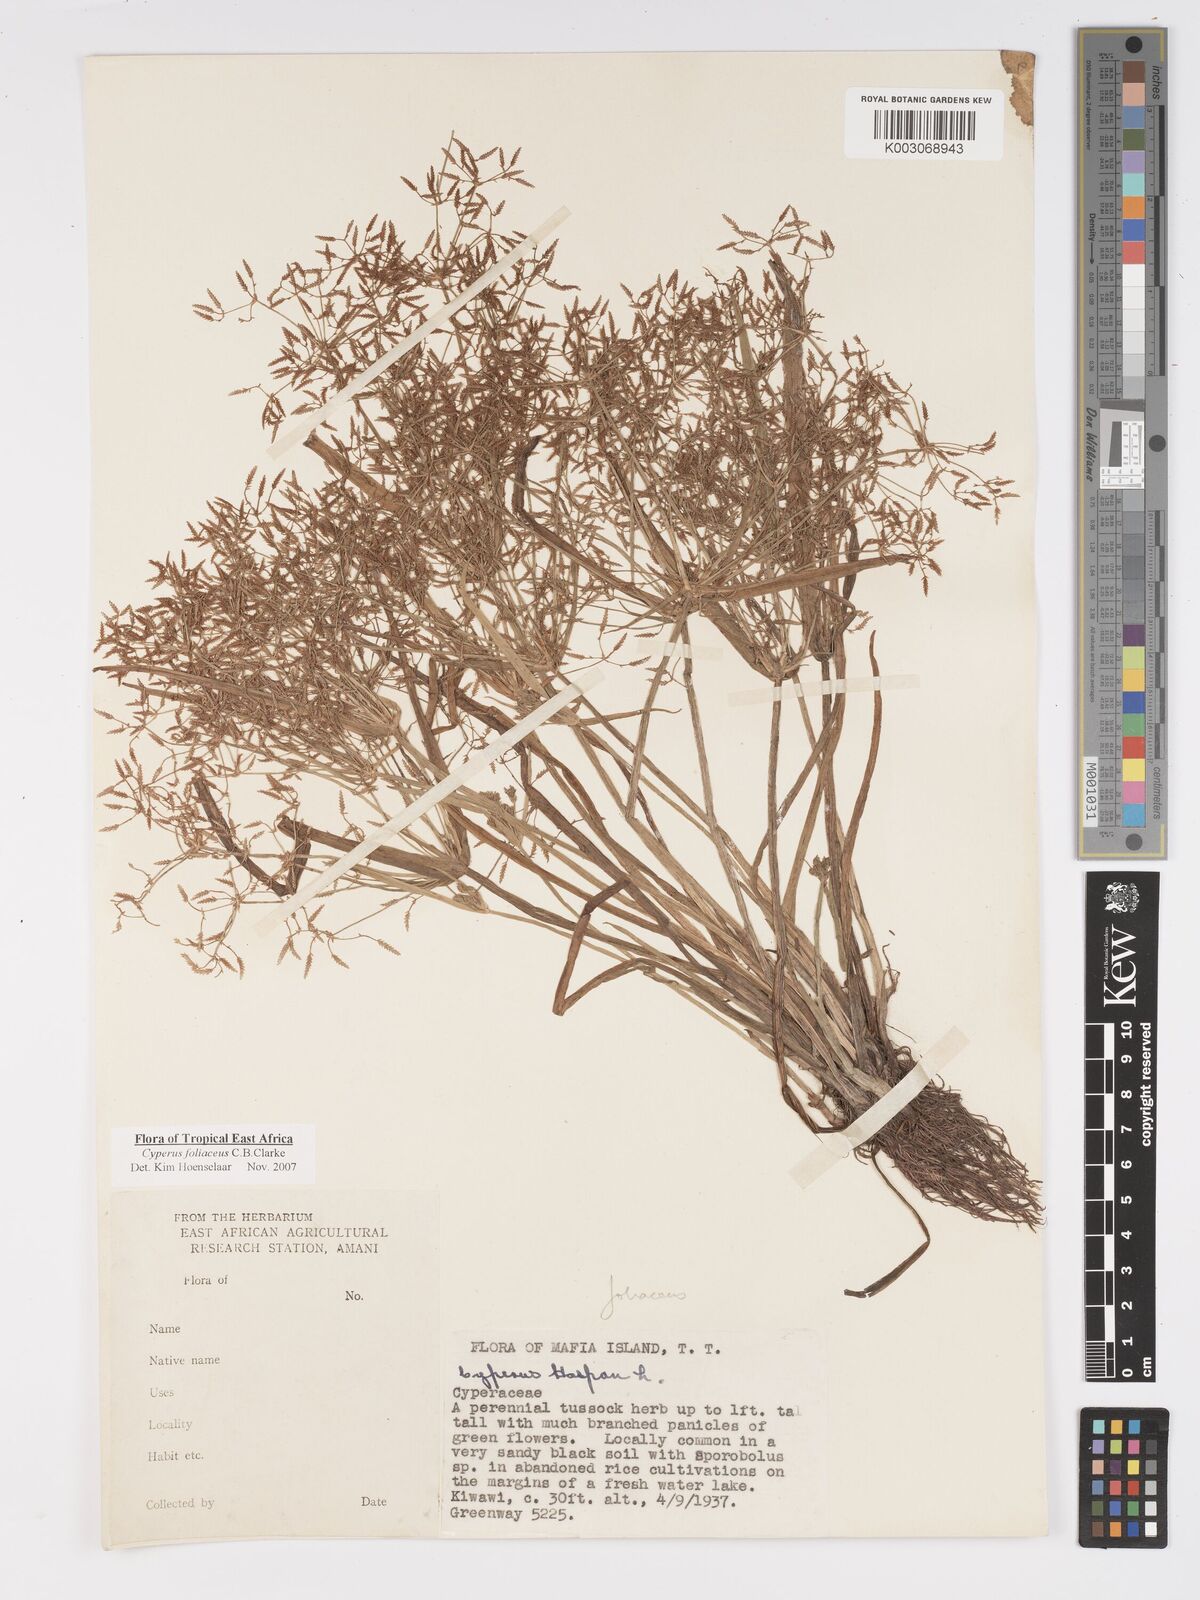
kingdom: Plantae
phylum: Tracheophyta
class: Liliopsida
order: Poales
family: Cyperaceae
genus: Cyperus
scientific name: Cyperus tenuispica
